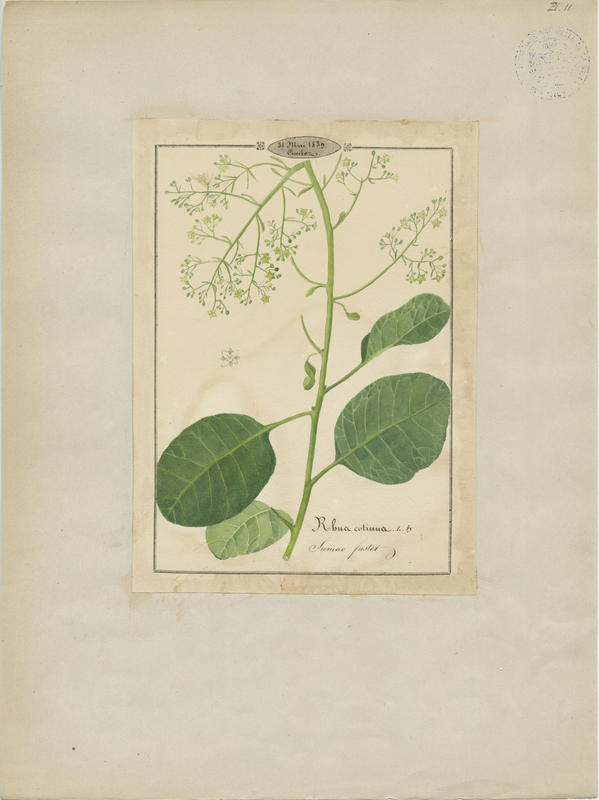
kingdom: Plantae
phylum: Tracheophyta
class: Magnoliopsida
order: Sapindales
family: Anacardiaceae
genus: Cotinus
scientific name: Cotinus coggygria
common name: Smoke-tree
